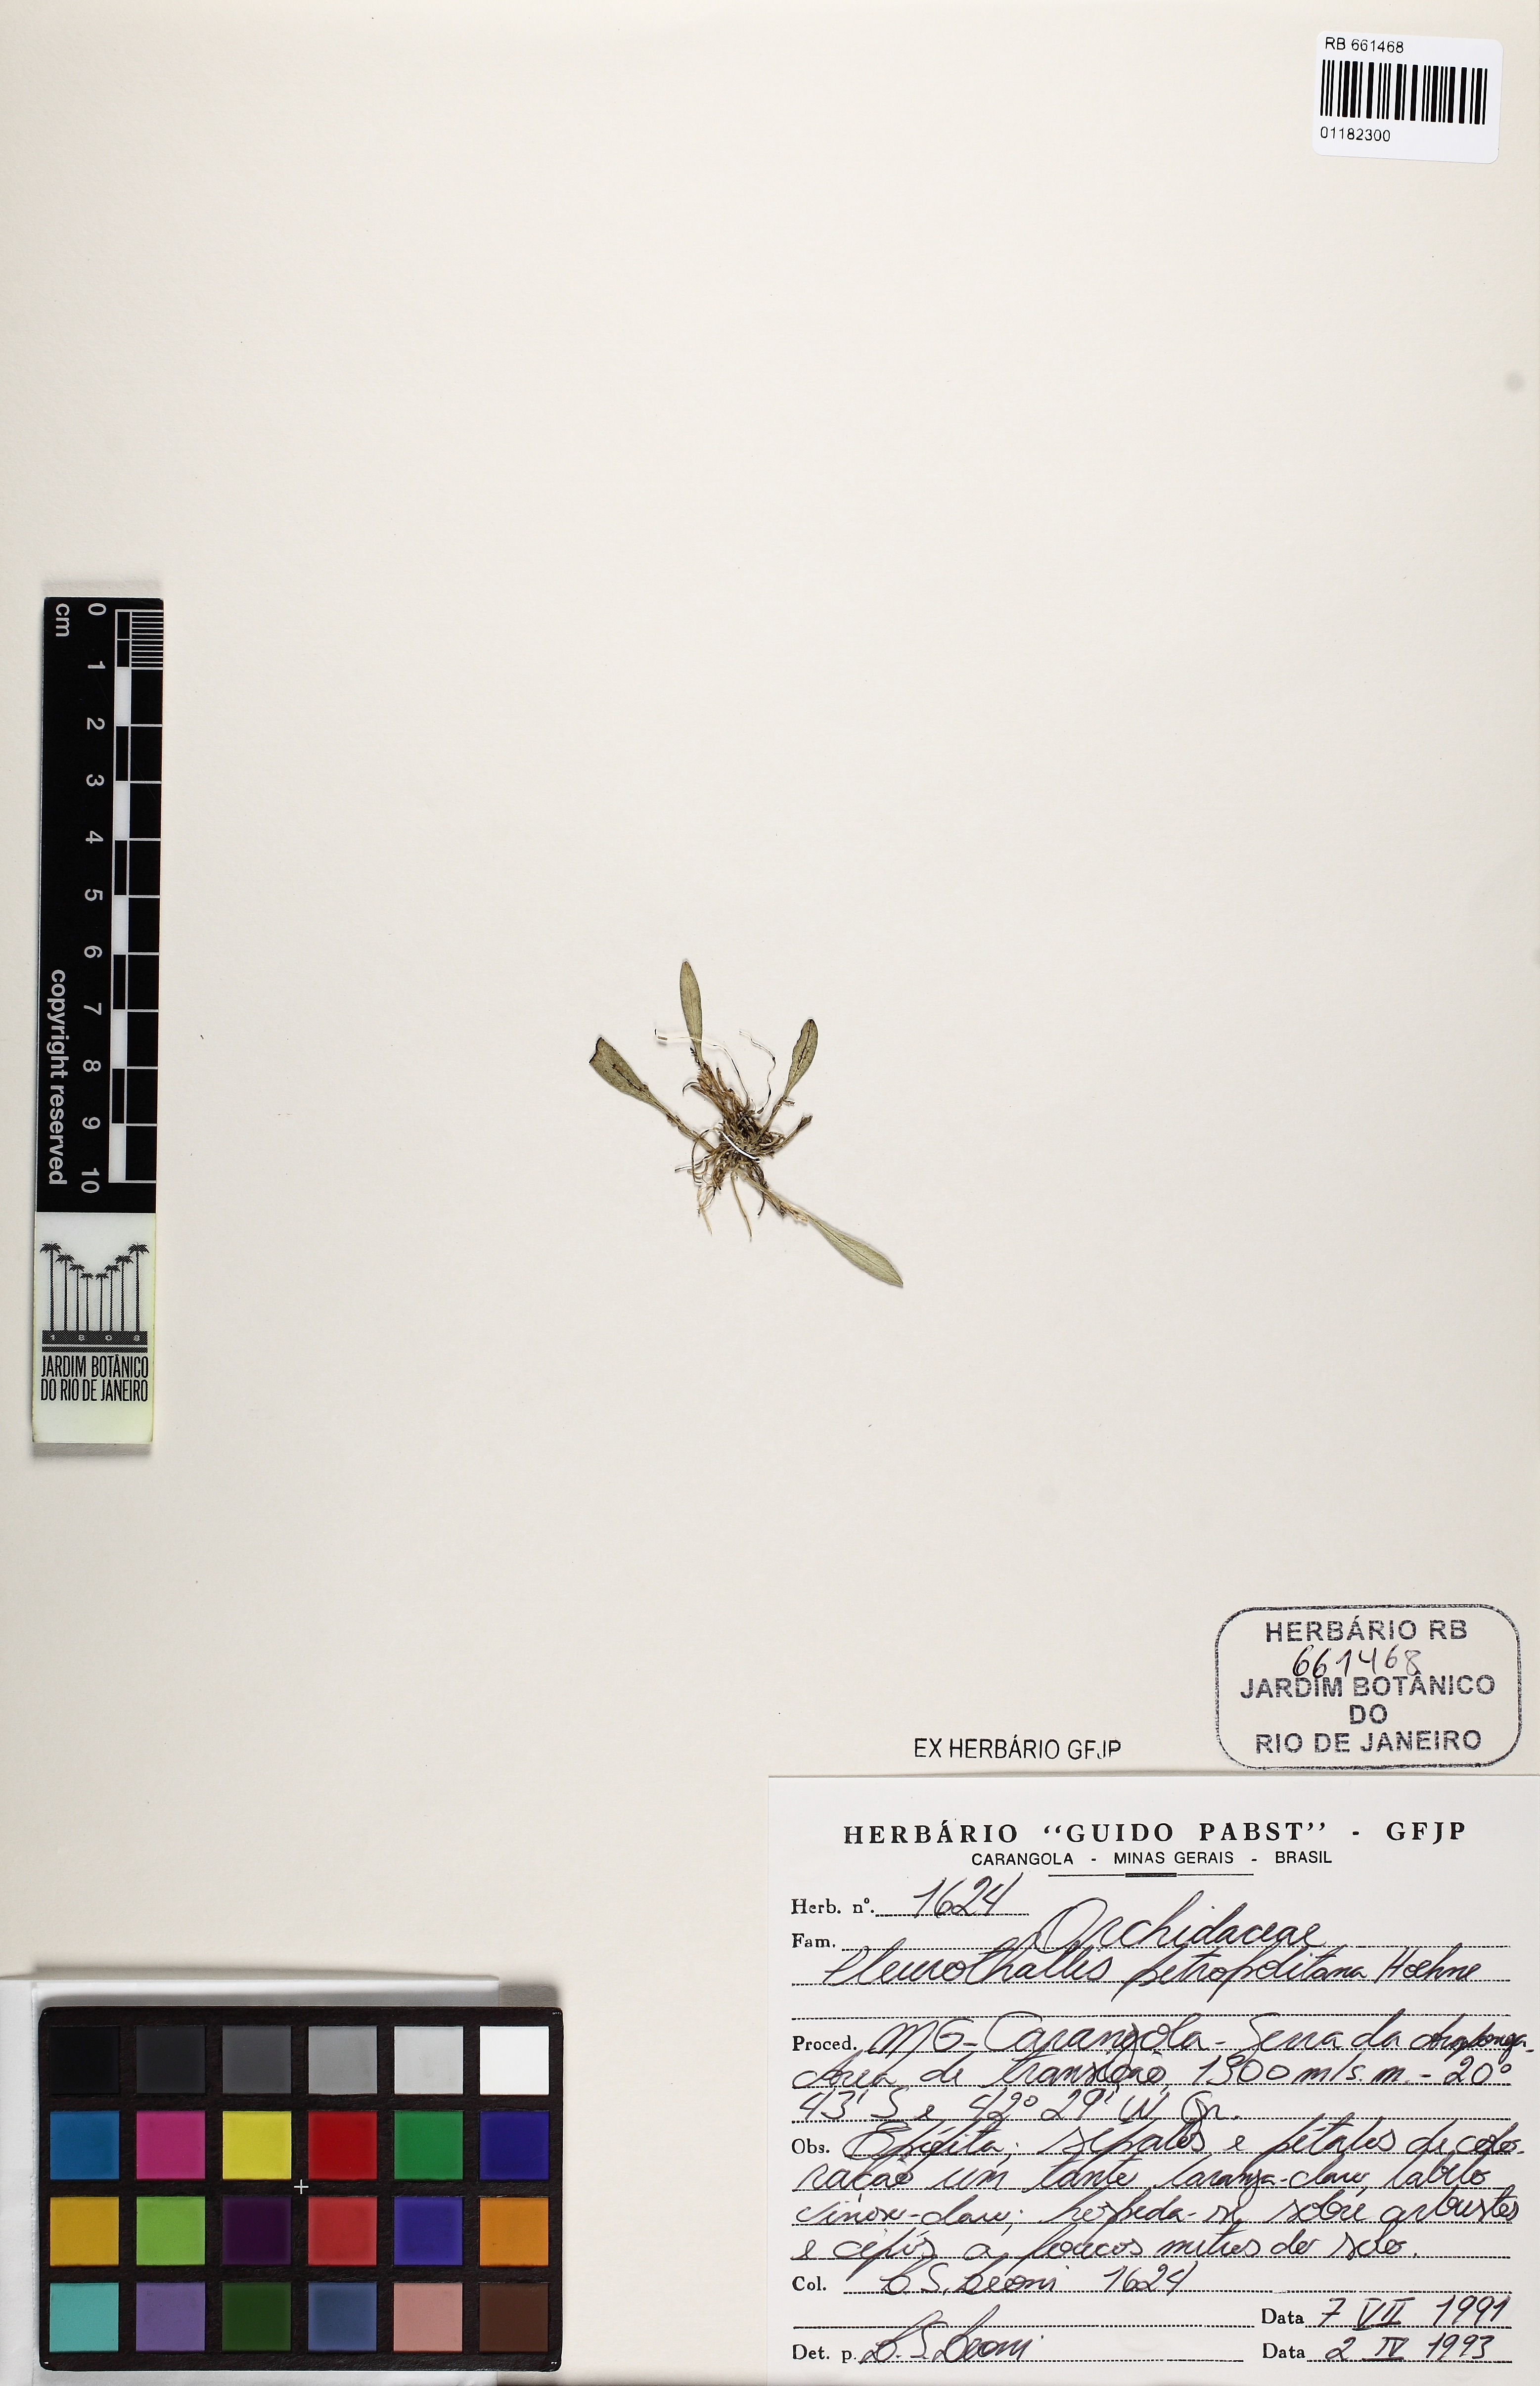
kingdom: Plantae
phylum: Tracheophyta
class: Liliopsida
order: Asparagales
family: Orchidaceae
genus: Anathallis
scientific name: Anathallis petropolitana
